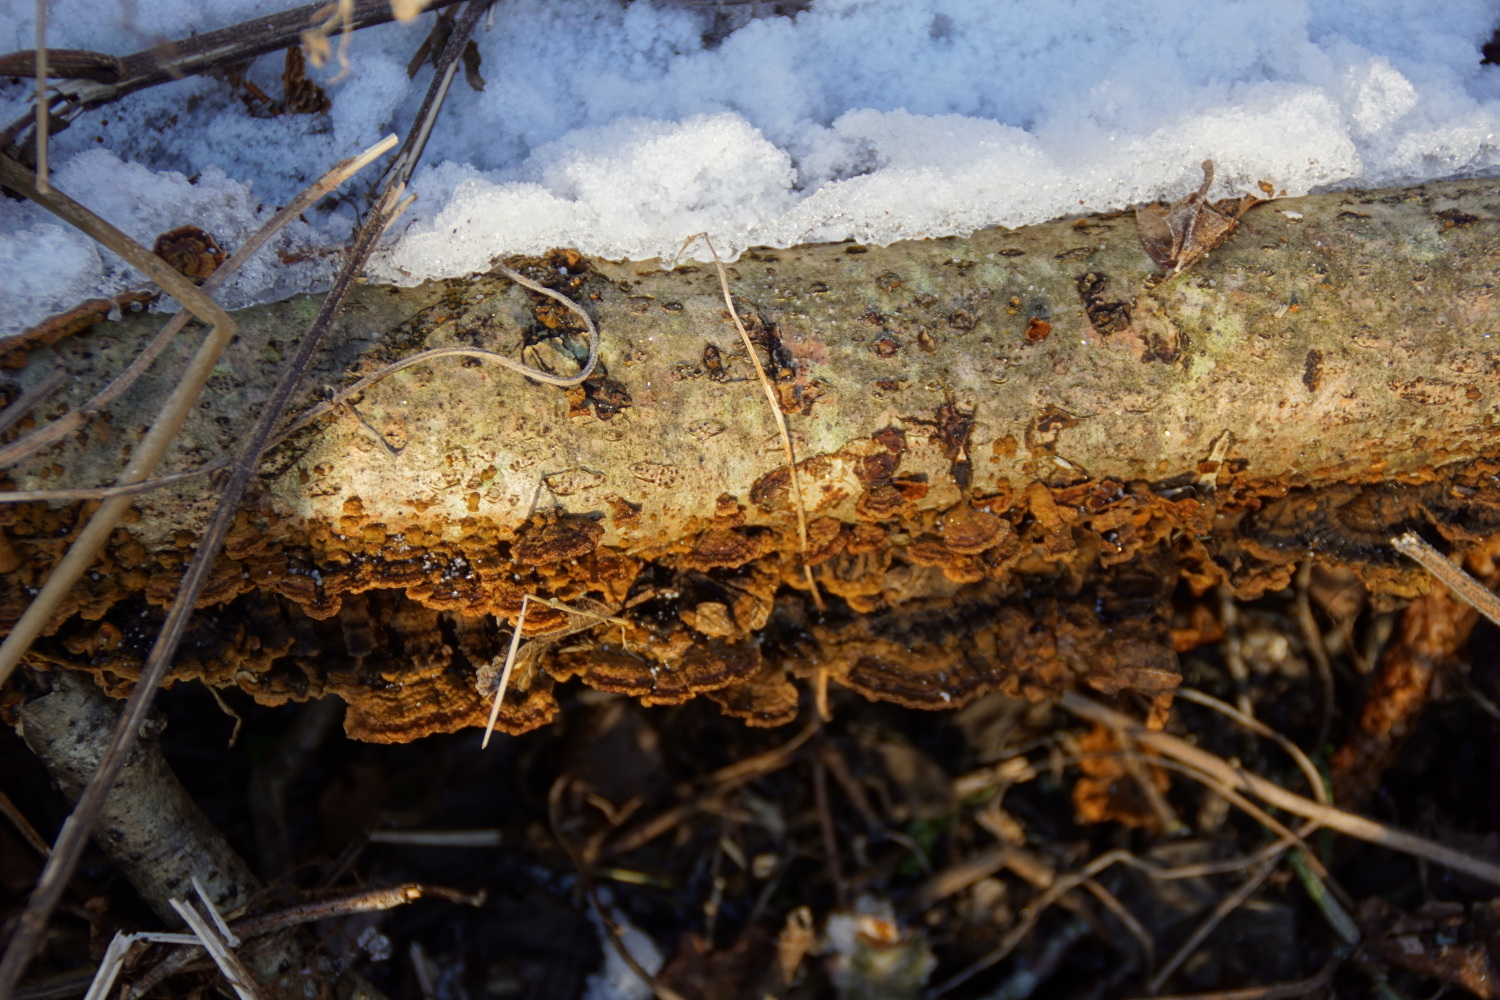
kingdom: Fungi
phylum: Basidiomycota
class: Agaricomycetes
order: Hymenochaetales
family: Hymenochaetaceae
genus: Hydnoporia
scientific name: Hydnoporia tabacina
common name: tobaksbrun ruslædersvamp
